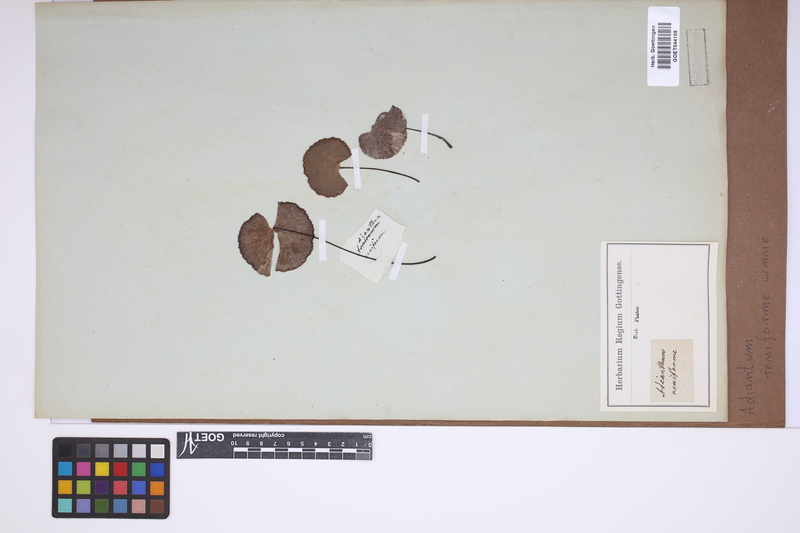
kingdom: Plantae
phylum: Tracheophyta
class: Polypodiopsida
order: Polypodiales
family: Pteridaceae
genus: Adiantum
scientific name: Adiantum reniforme
